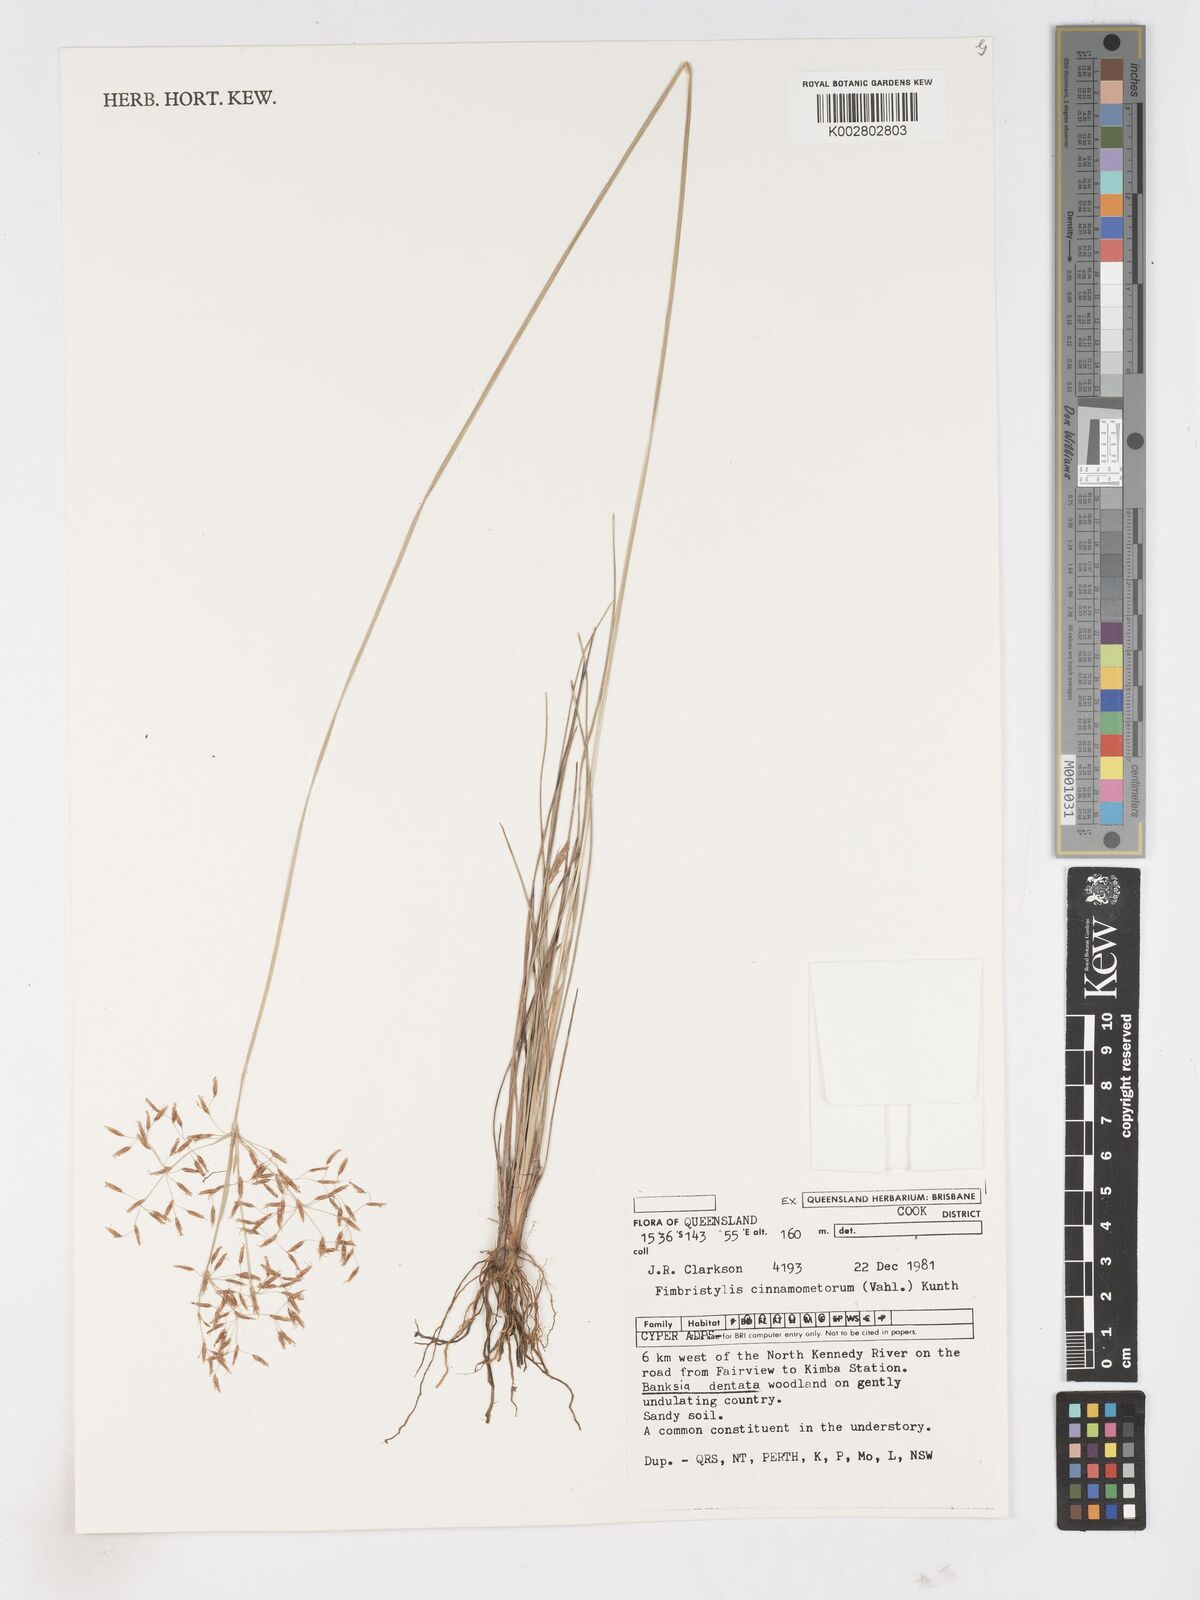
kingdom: Plantae
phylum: Tracheophyta
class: Liliopsida
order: Poales
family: Cyperaceae
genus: Fimbristylis
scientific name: Fimbristylis cinnamometorum
